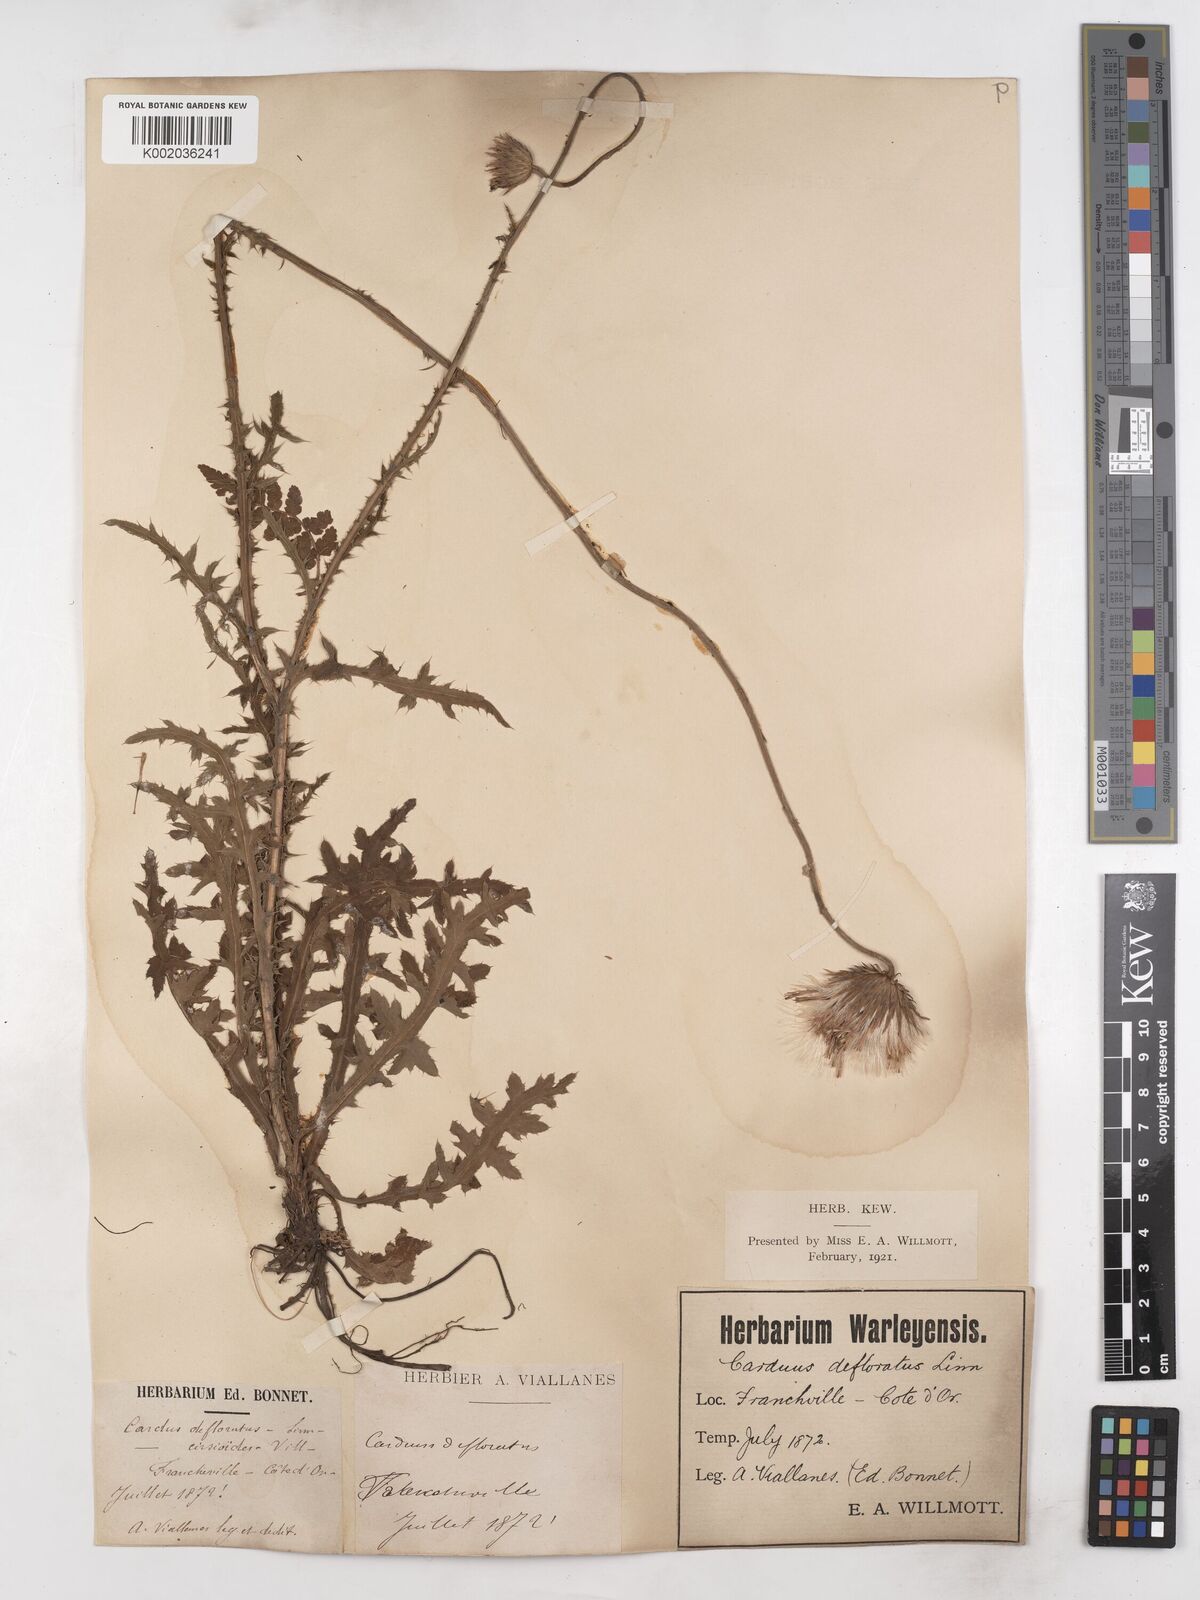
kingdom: Plantae
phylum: Tracheophyta
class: Magnoliopsida
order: Asterales
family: Asteraceae
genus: Carduus
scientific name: Carduus defloratus
